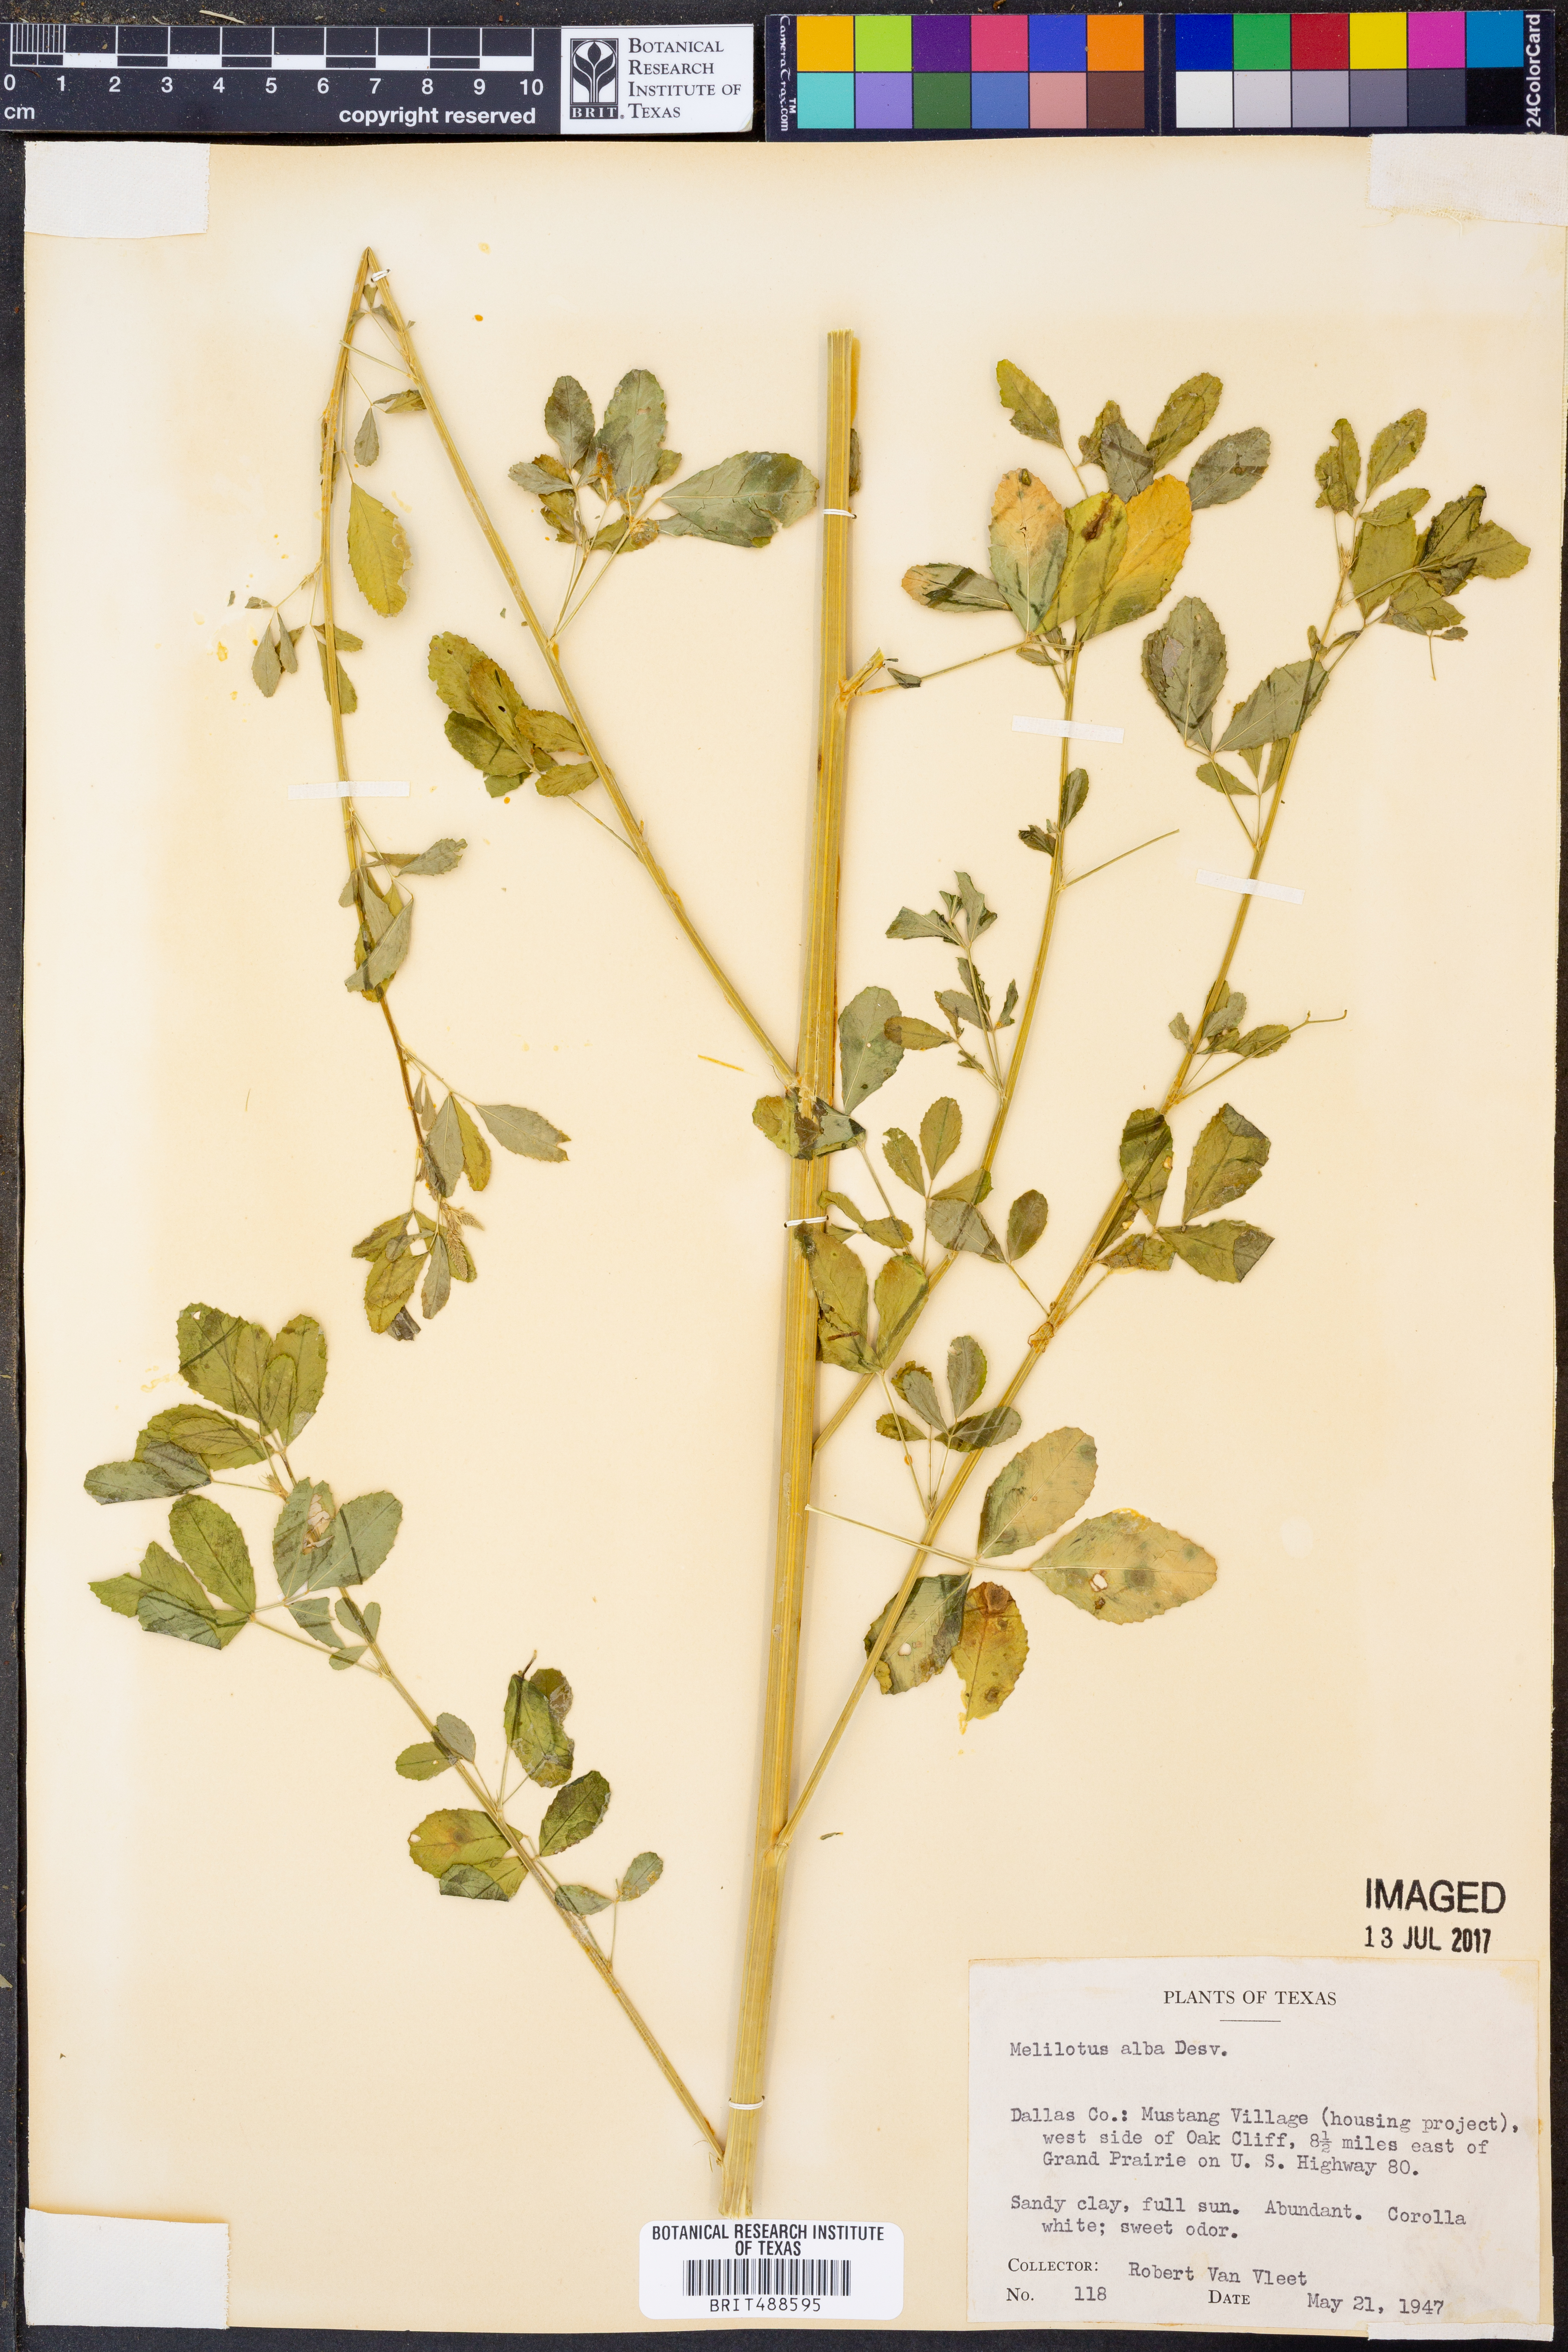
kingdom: Plantae
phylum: Tracheophyta
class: Magnoliopsida
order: Fabales
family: Fabaceae
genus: Melilotus
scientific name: Melilotus albus
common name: White melilot
